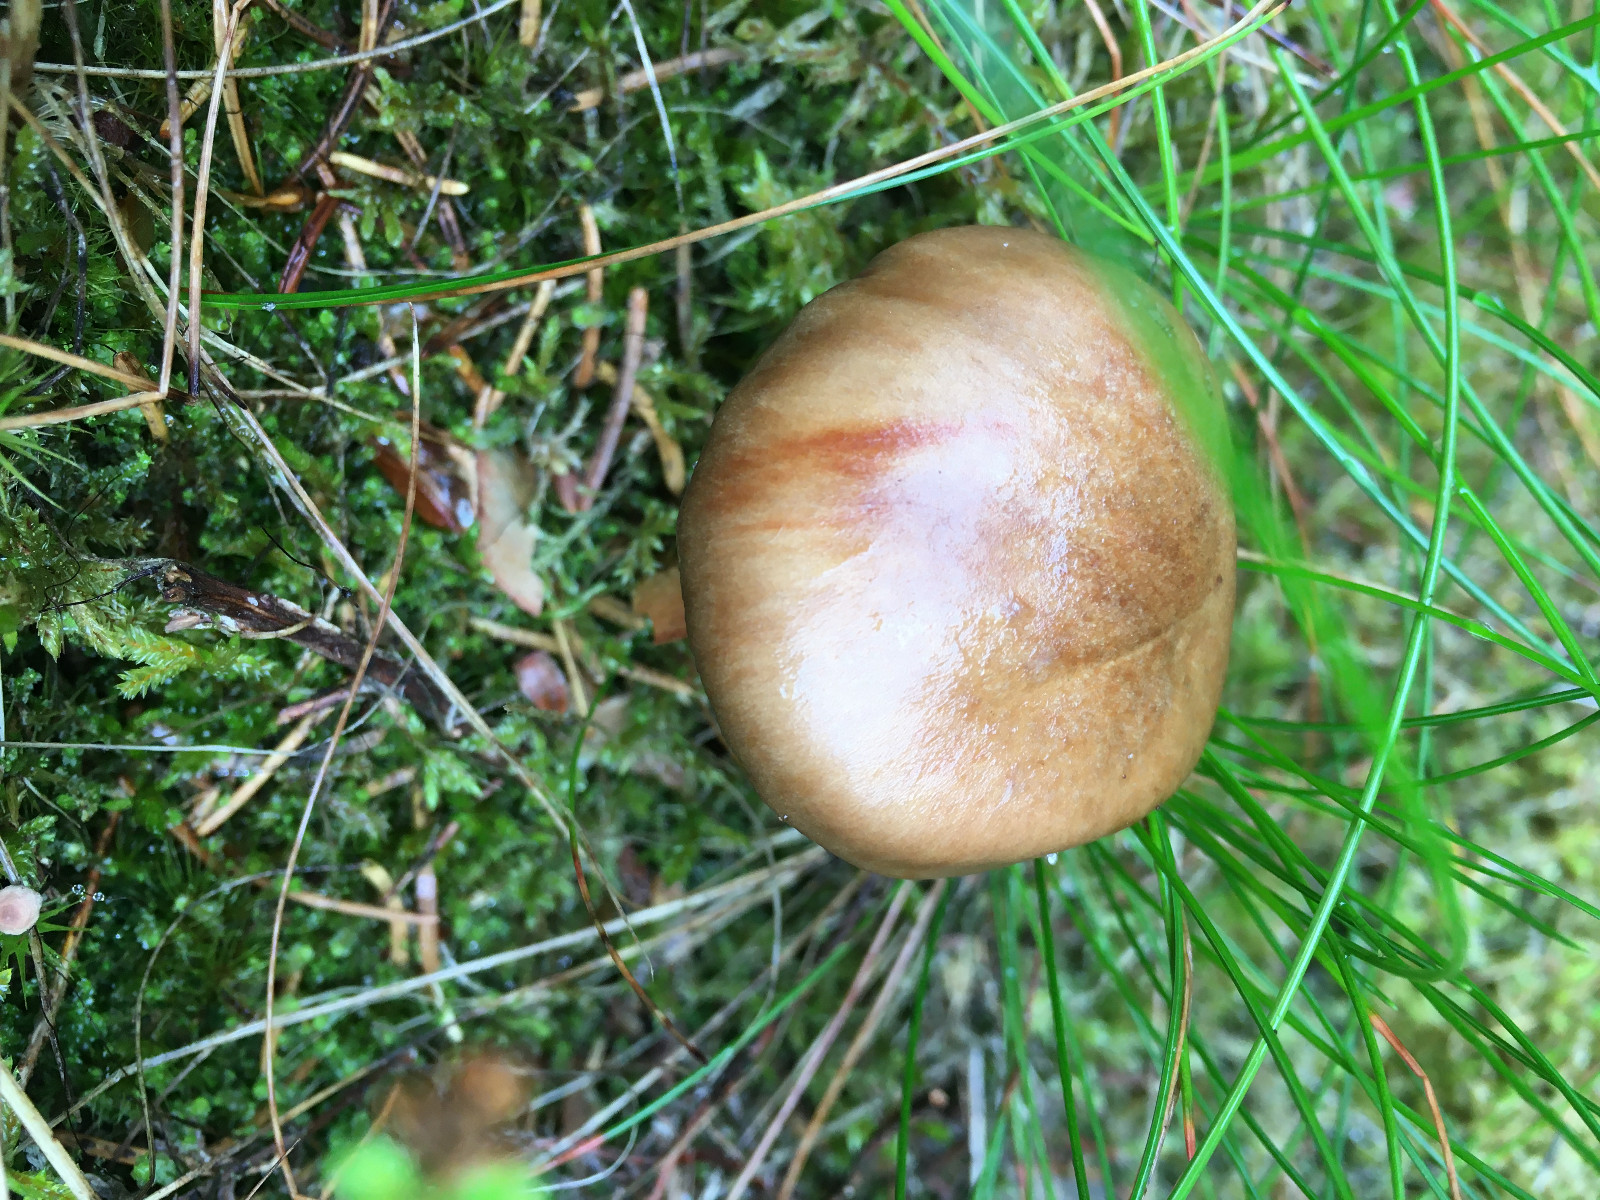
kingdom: Fungi
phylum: Basidiomycota
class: Agaricomycetes
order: Agaricales
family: Cortinariaceae
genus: Cortinarius
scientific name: Cortinarius
